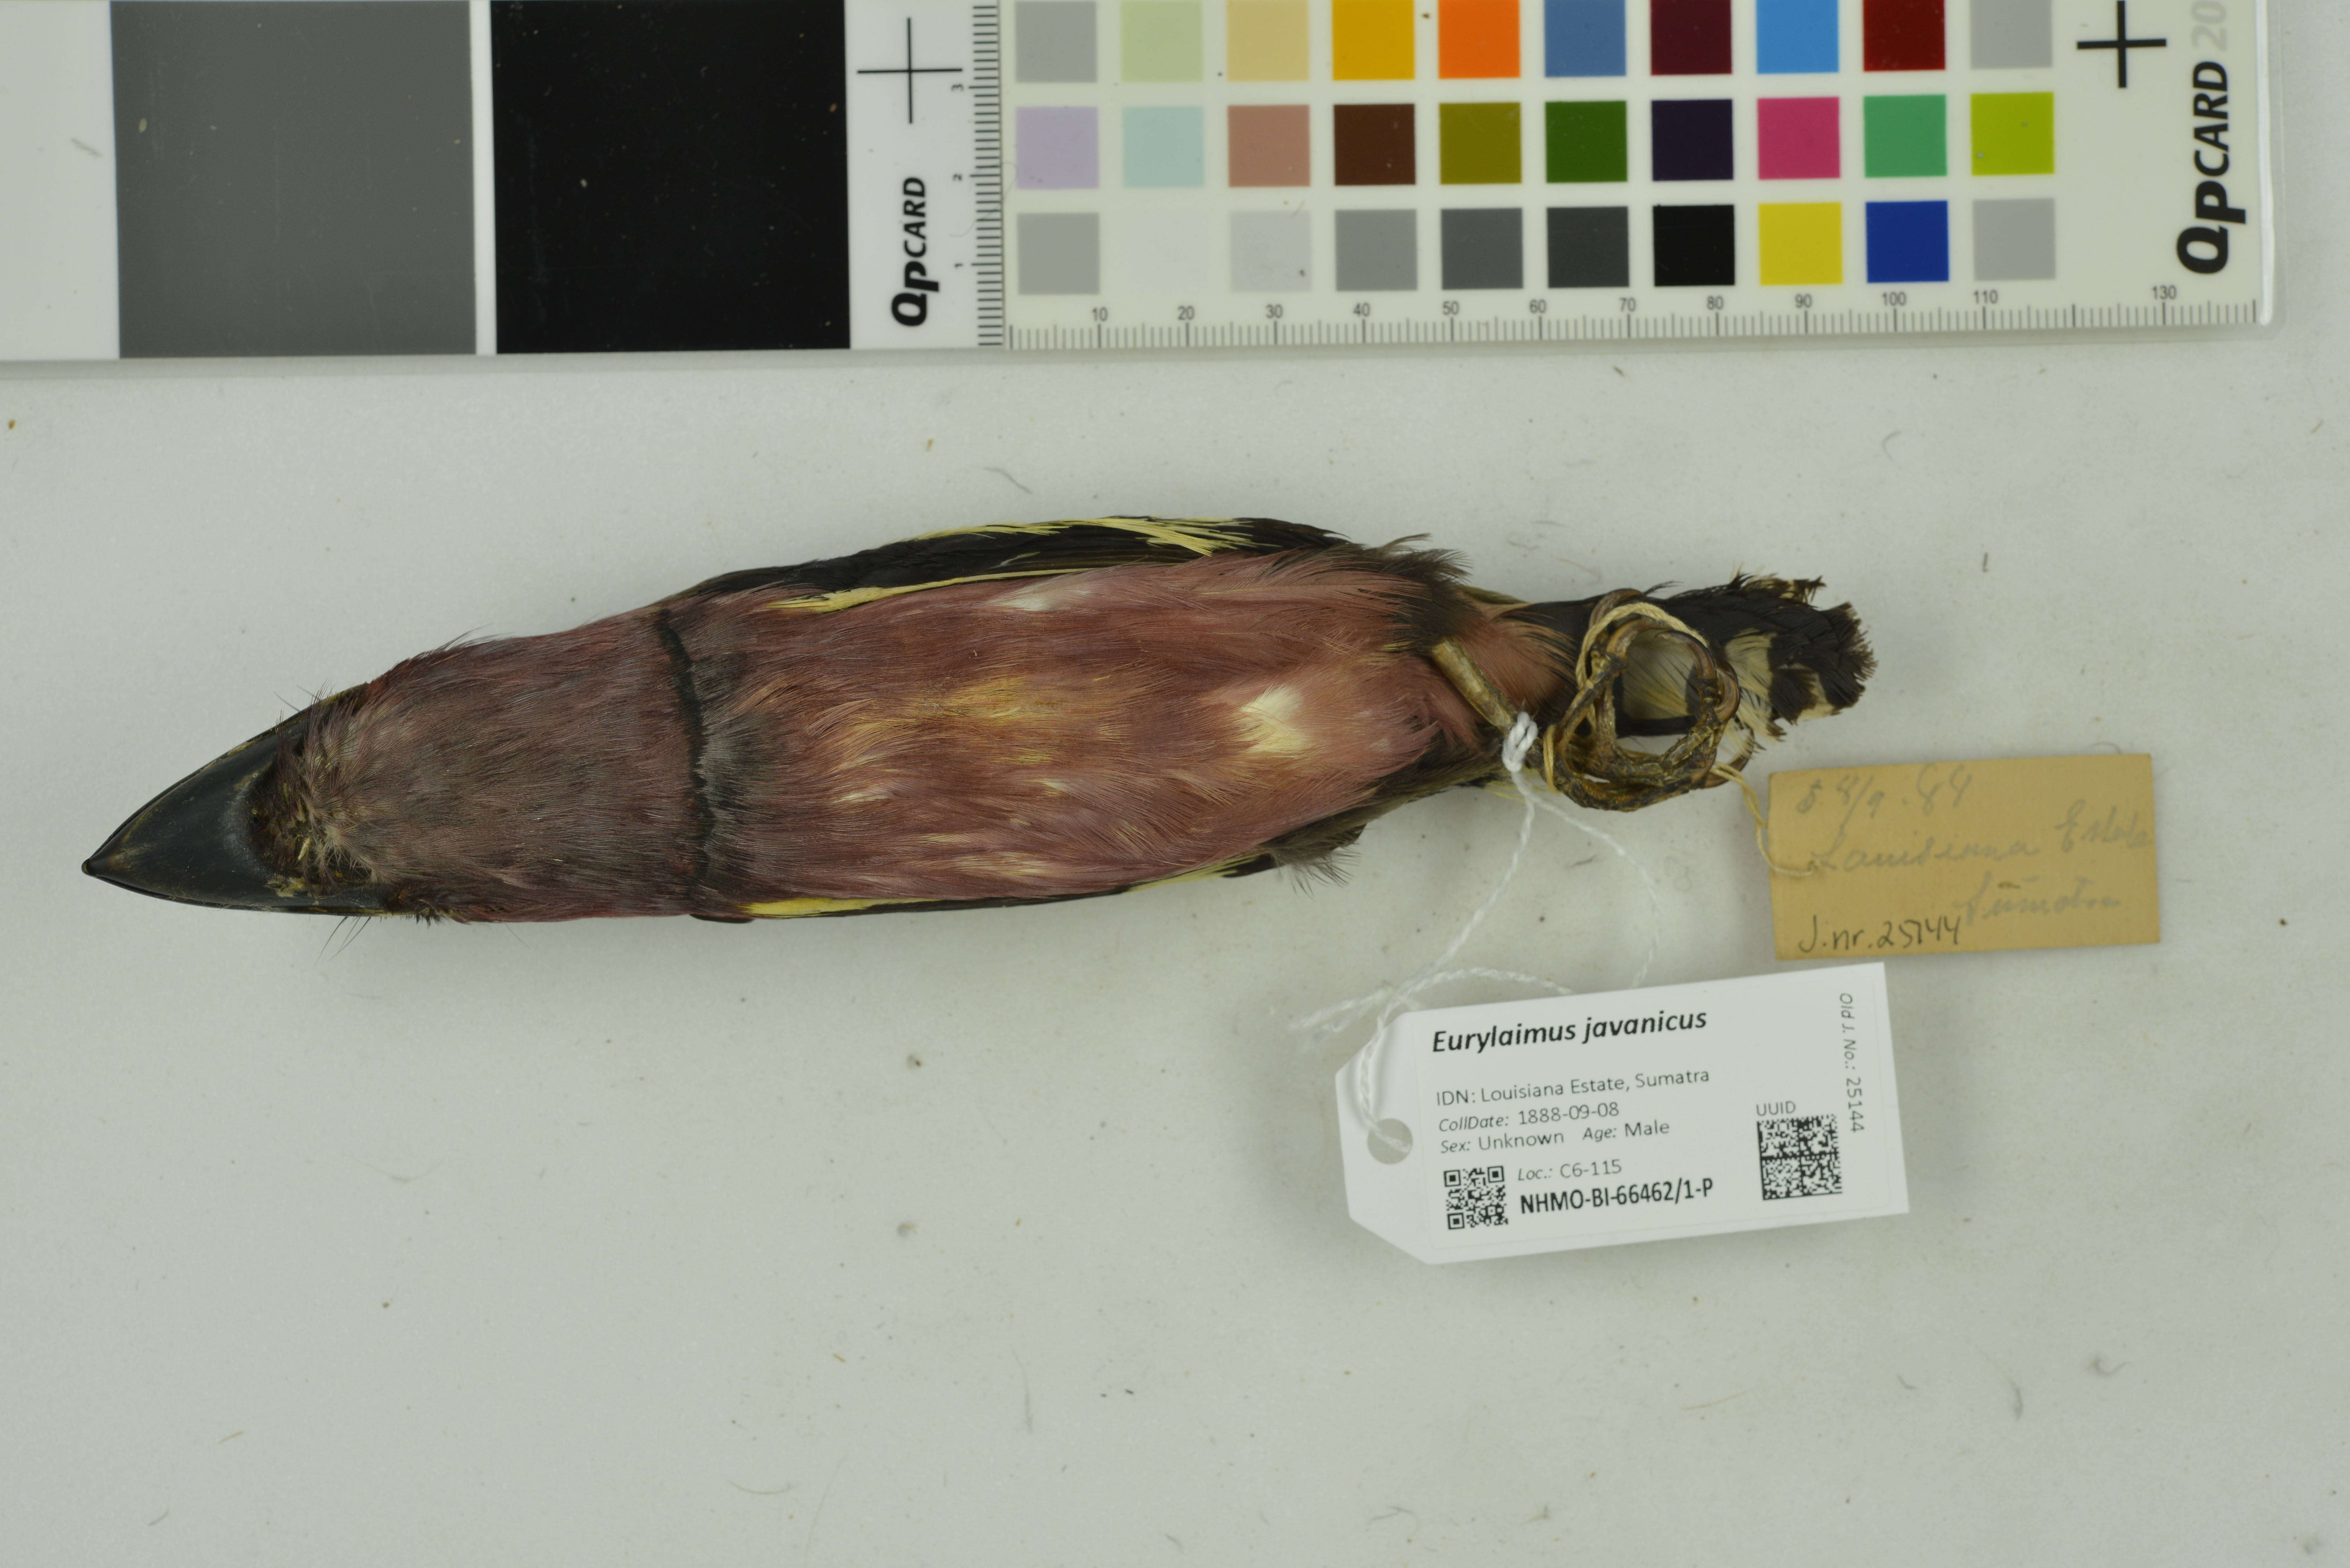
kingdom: Animalia
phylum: Chordata
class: Aves
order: Passeriformes
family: Eurylaimidae
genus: Eurylaimus
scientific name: Eurylaimus javanicus
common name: Banded broadbill
